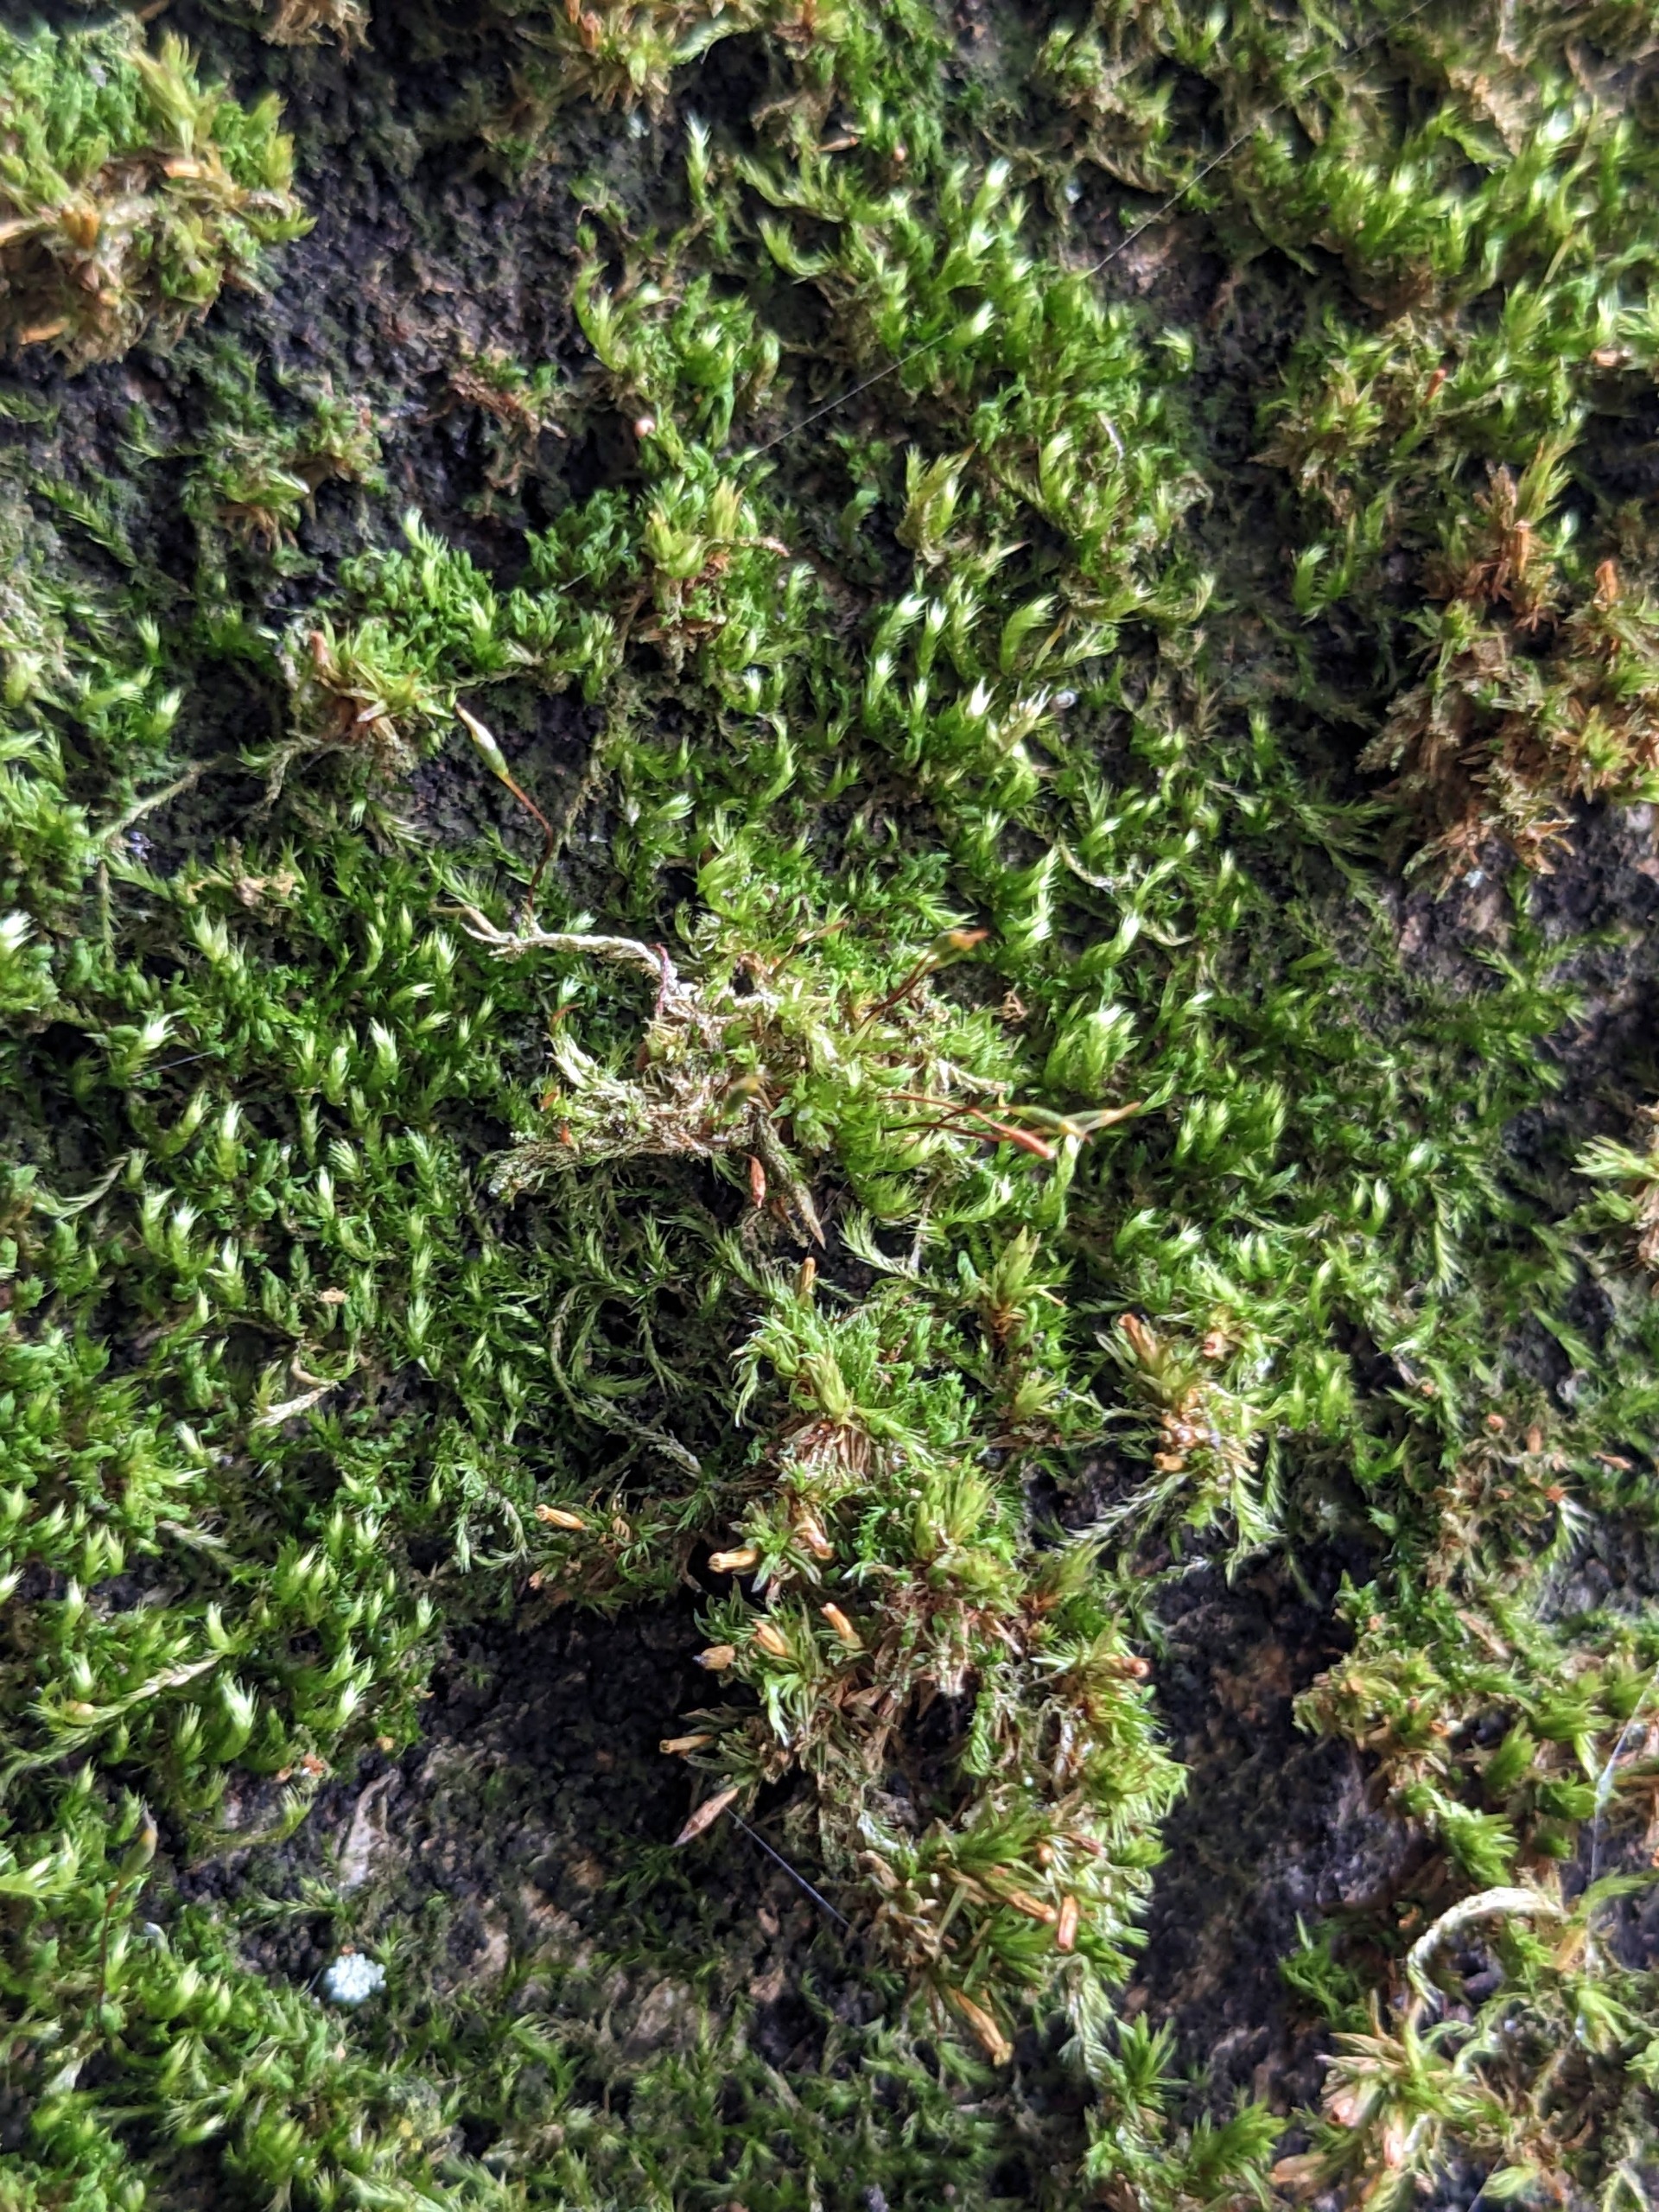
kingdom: Plantae
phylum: Bryophyta
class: Bryopsida
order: Hypnales
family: Pylaisiaceae
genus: Pylaisia
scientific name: Pylaisia polyantha
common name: Mangefrugtet aspemos
